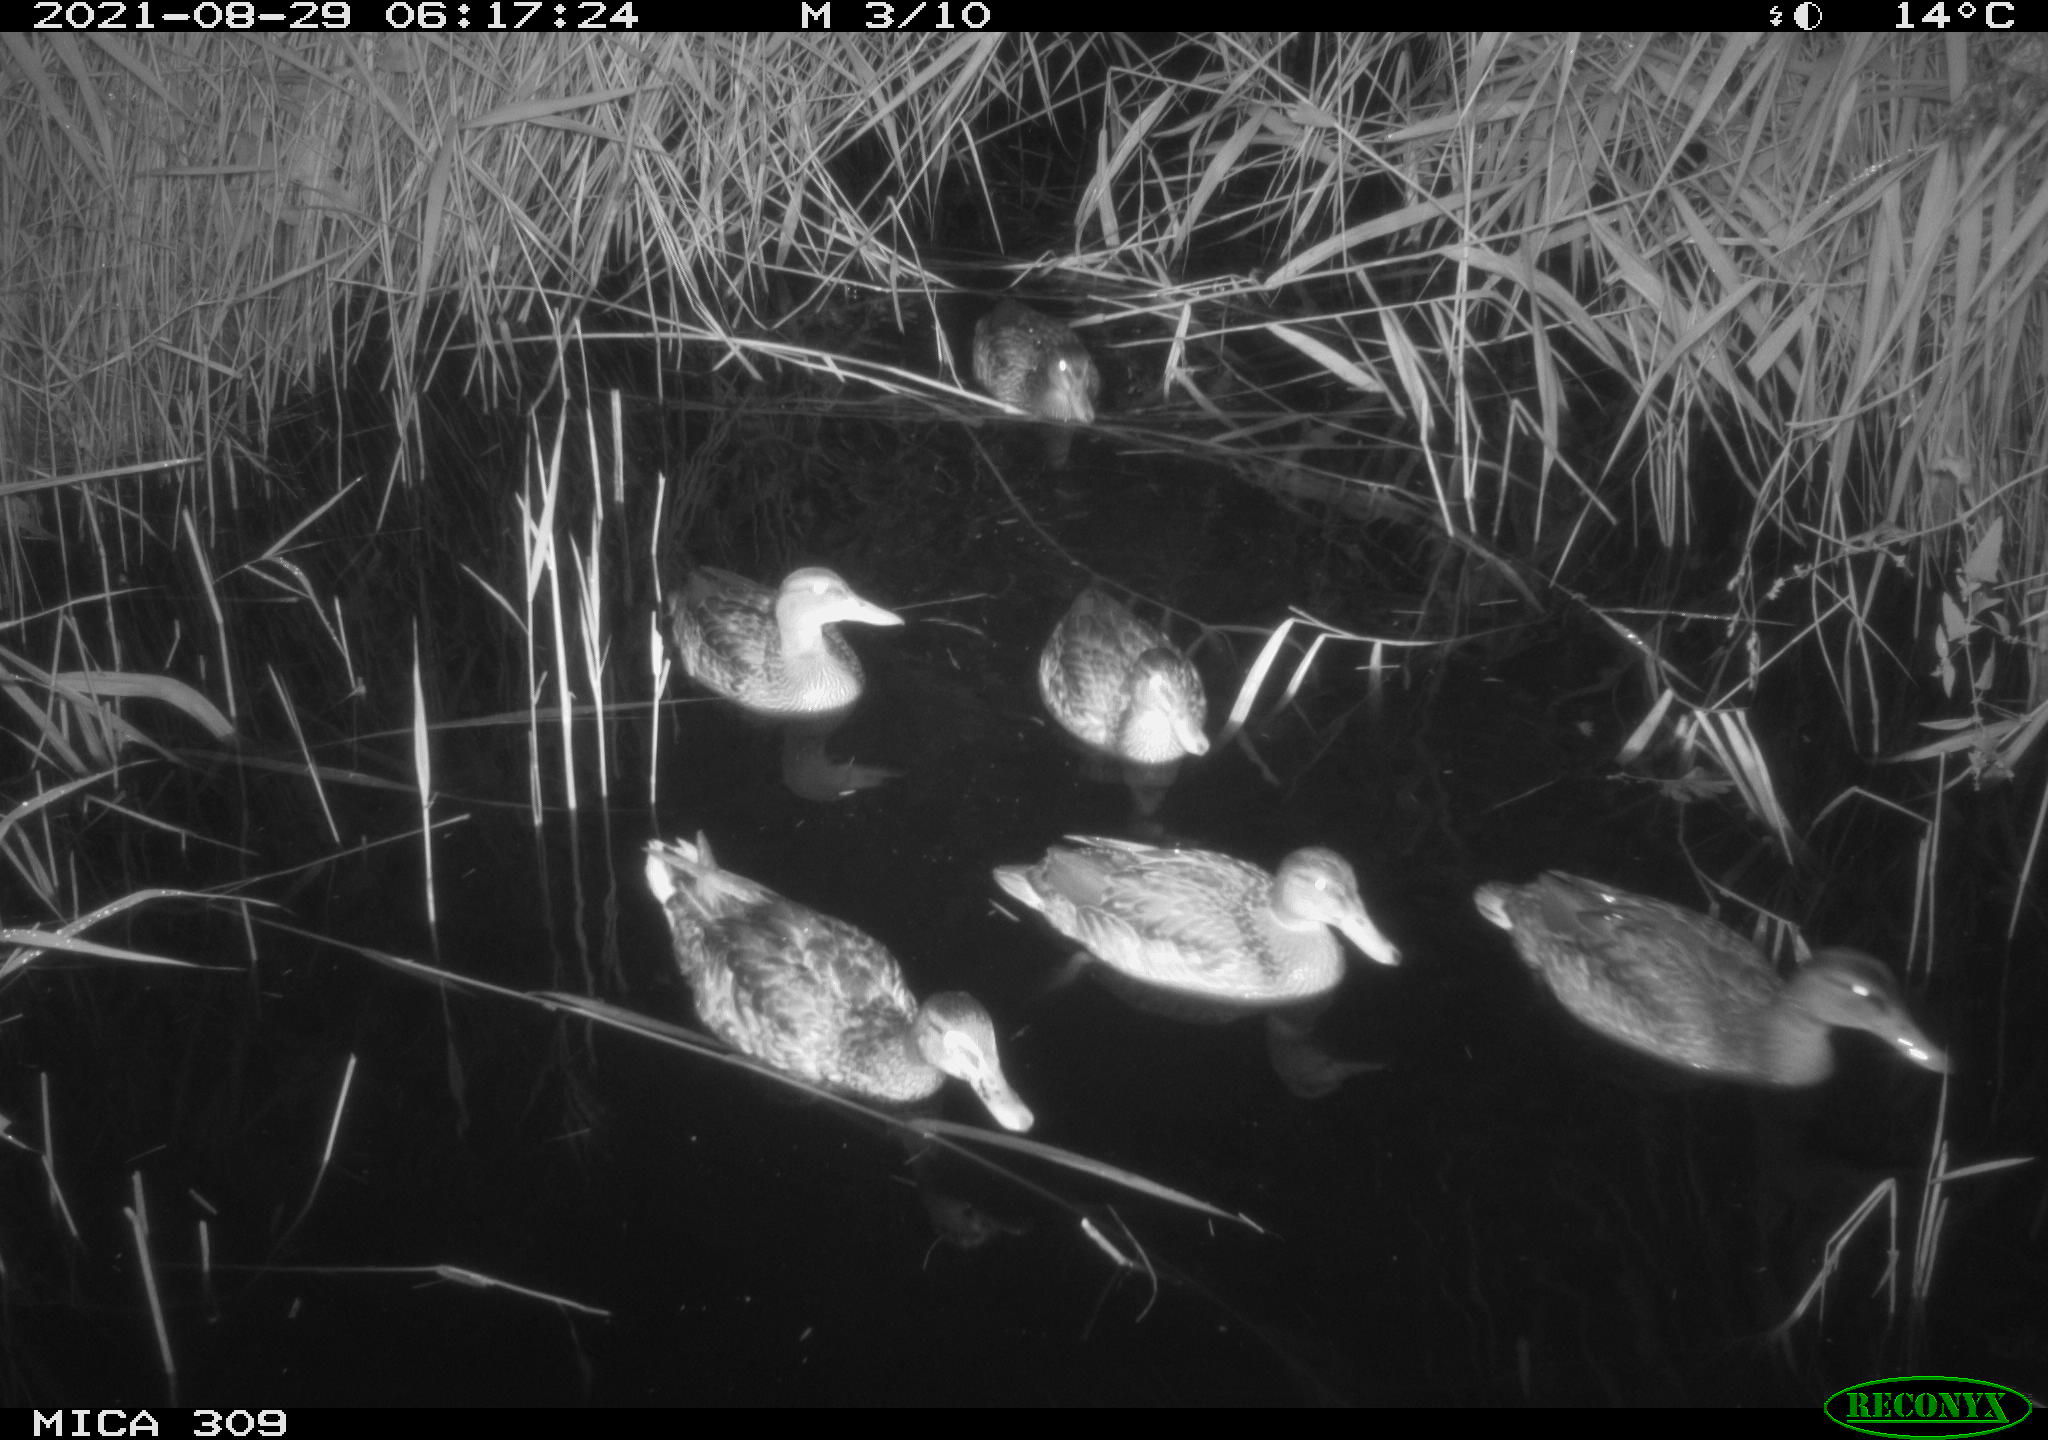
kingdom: Animalia
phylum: Chordata
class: Aves
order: Anseriformes
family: Anatidae
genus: Mareca
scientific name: Mareca strepera
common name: Gadwall
